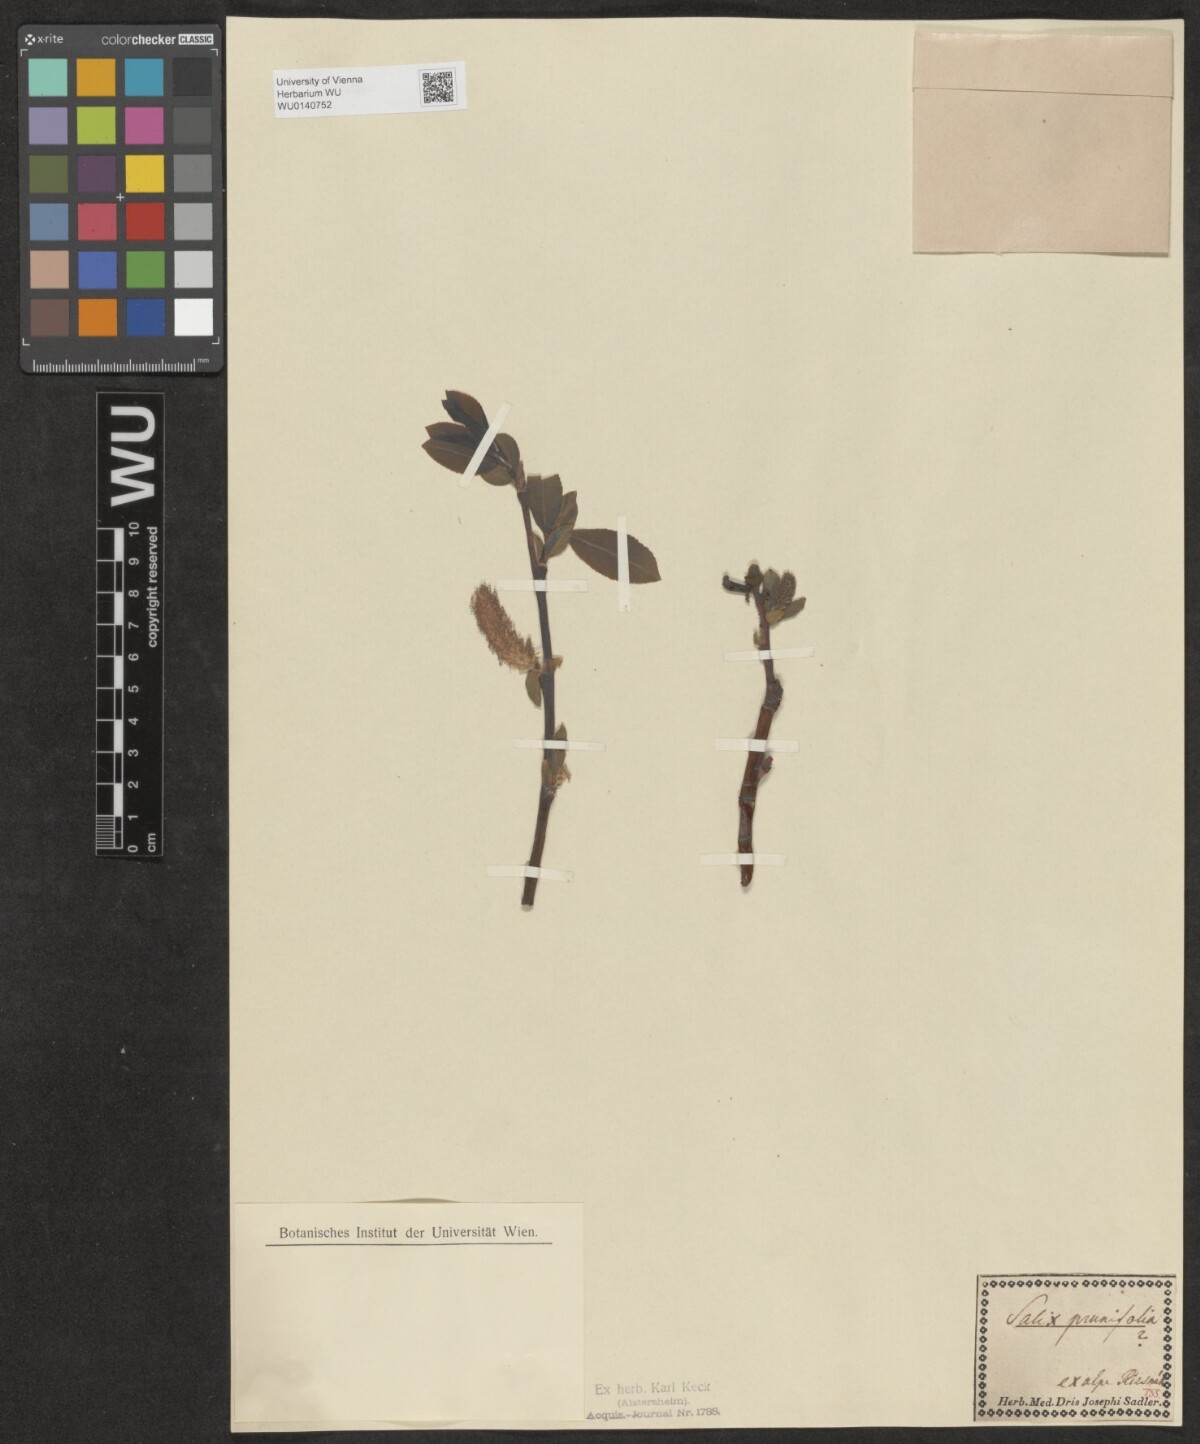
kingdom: Plantae
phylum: Tracheophyta
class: Magnoliopsida
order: Malpighiales
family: Salicaceae
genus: Salix
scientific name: Salix
